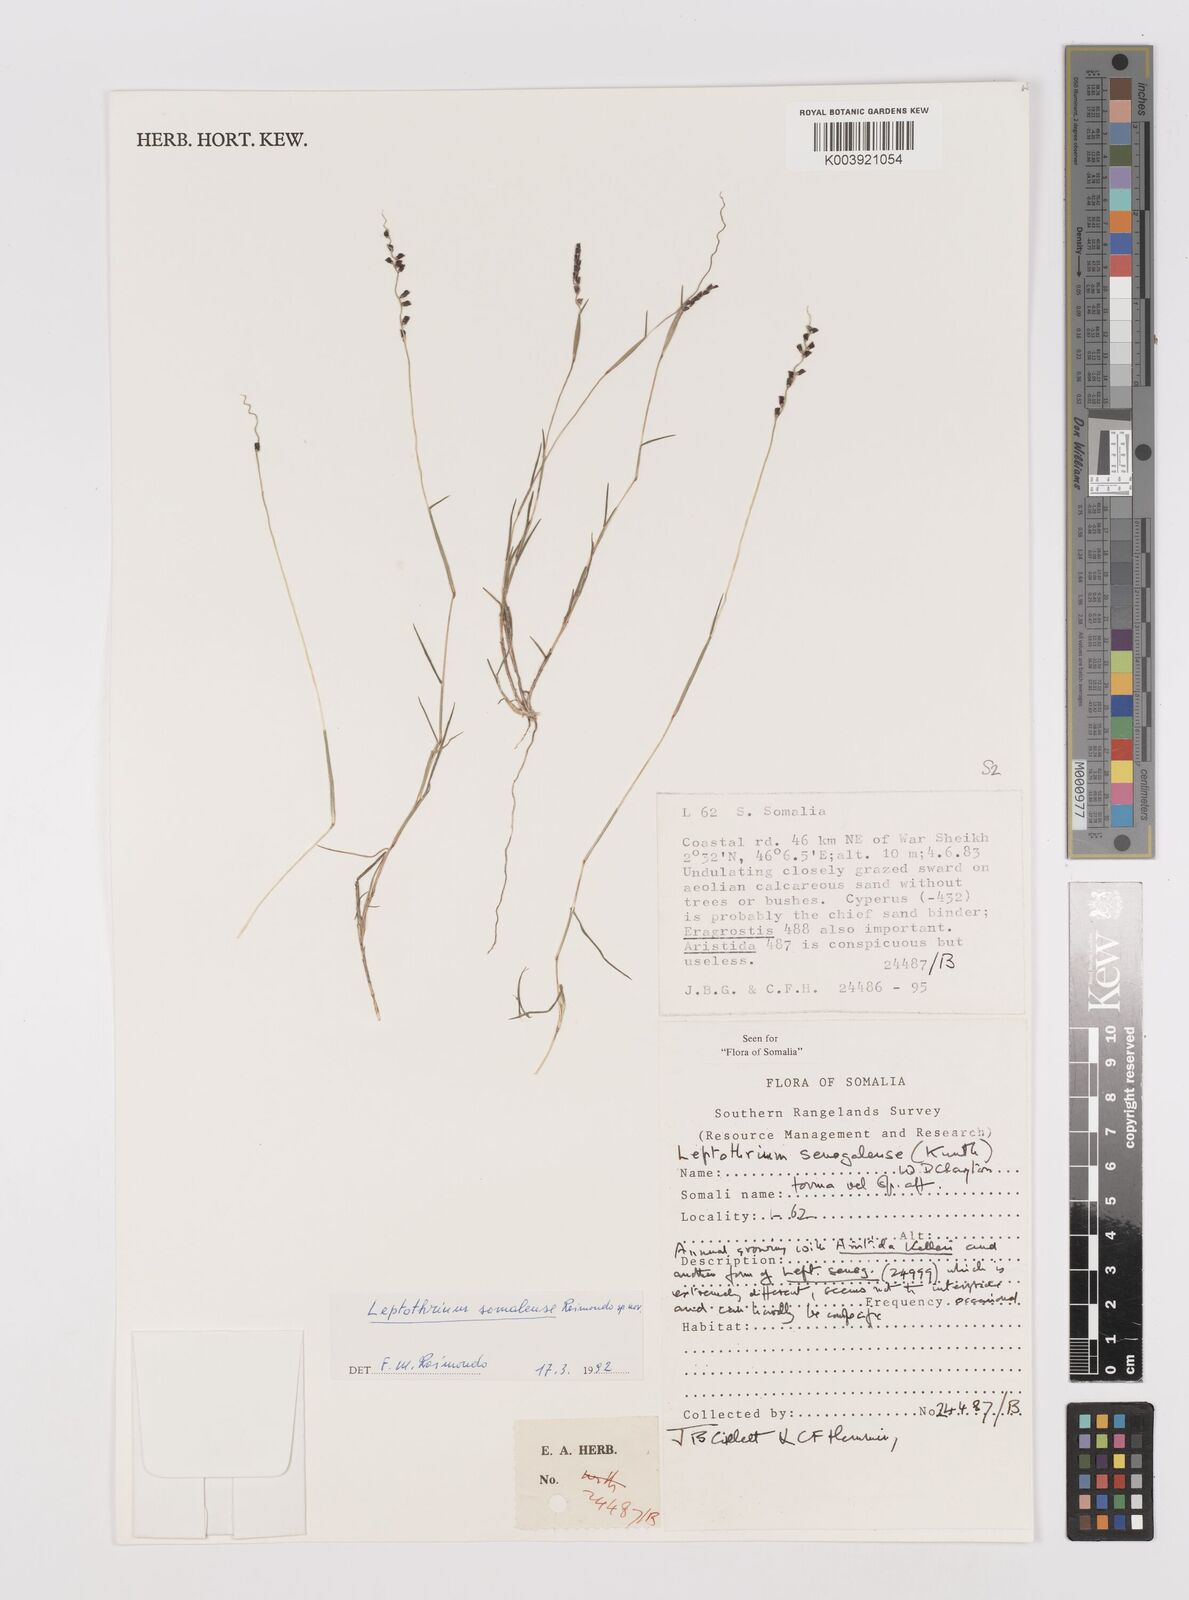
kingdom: Plantae
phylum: Tracheophyta
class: Liliopsida
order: Poales
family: Poaceae
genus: Leptothrium
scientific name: Leptothrium senegalense
